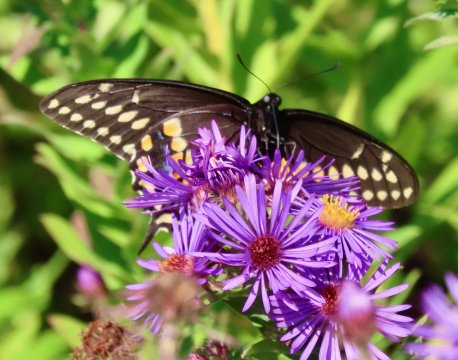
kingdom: Animalia
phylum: Arthropoda
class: Insecta
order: Lepidoptera
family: Papilionidae
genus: Papilio
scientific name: Papilio polyxenes
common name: Black Swallowtail
